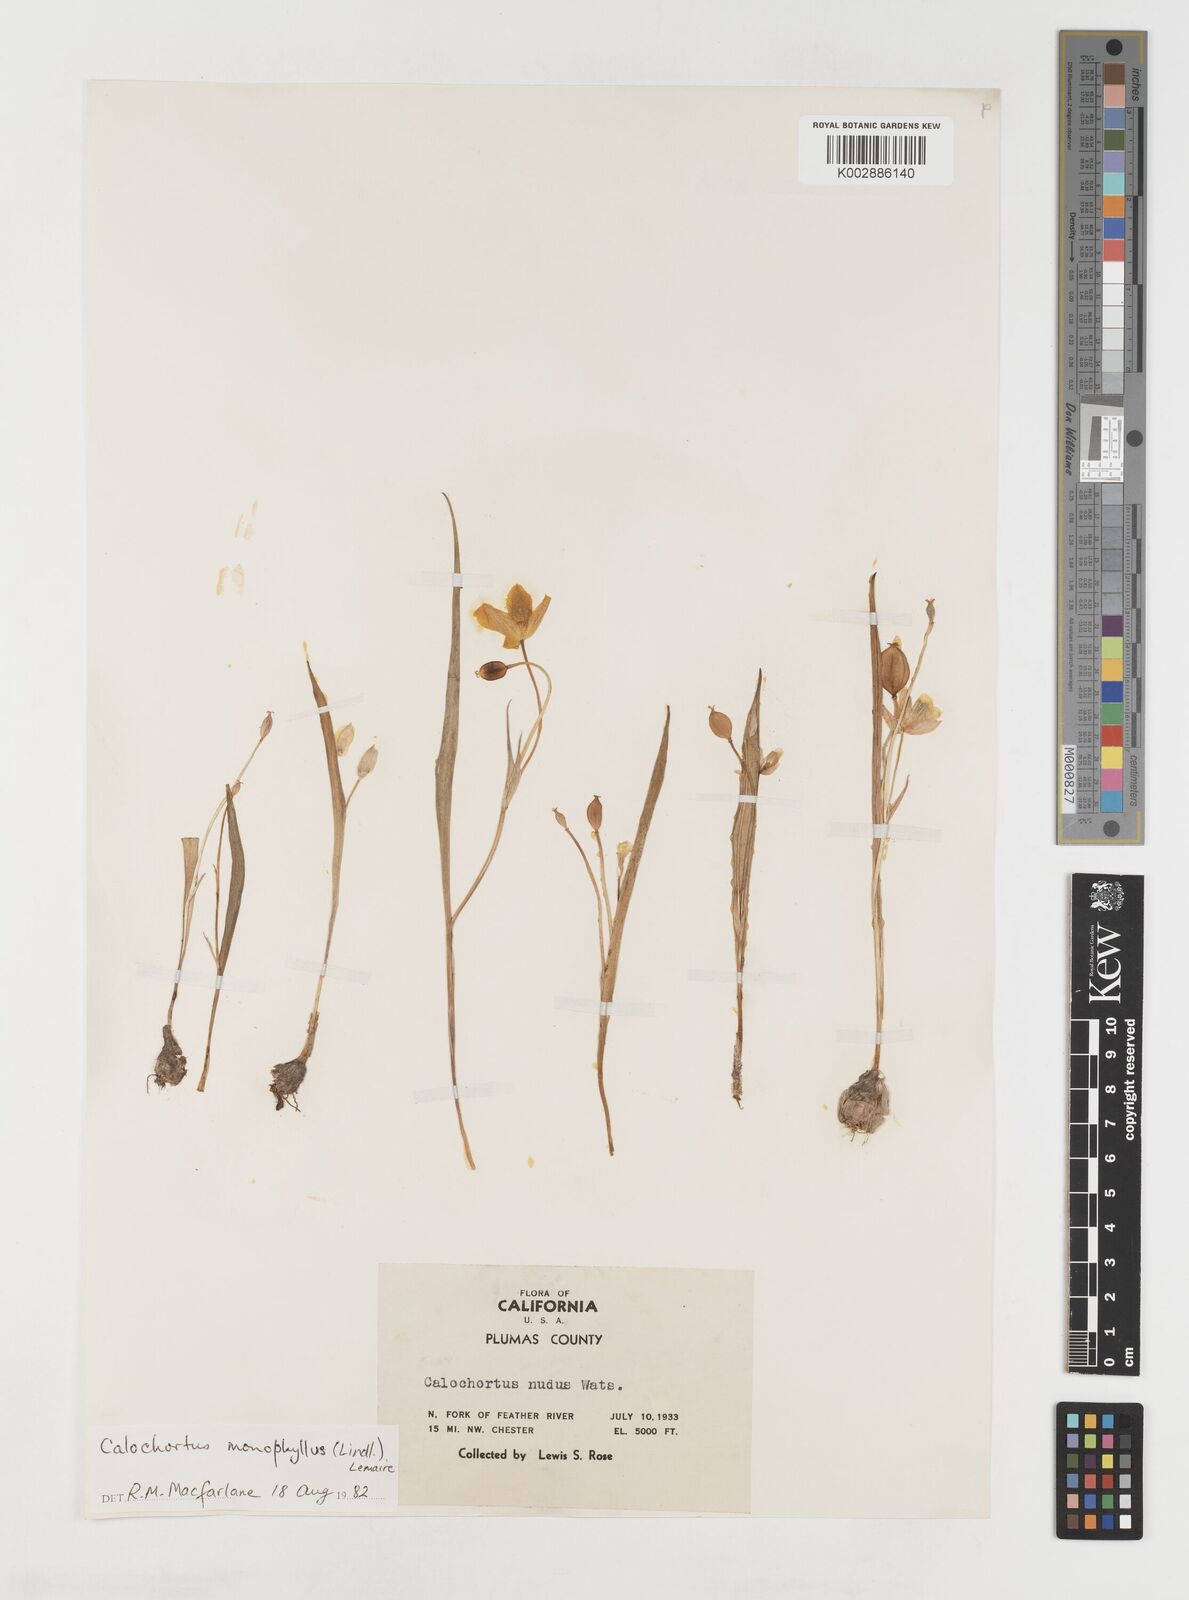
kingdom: Plantae
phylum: Tracheophyta
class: Liliopsida
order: Liliales
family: Liliaceae
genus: Calochortus
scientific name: Calochortus monophyllus
